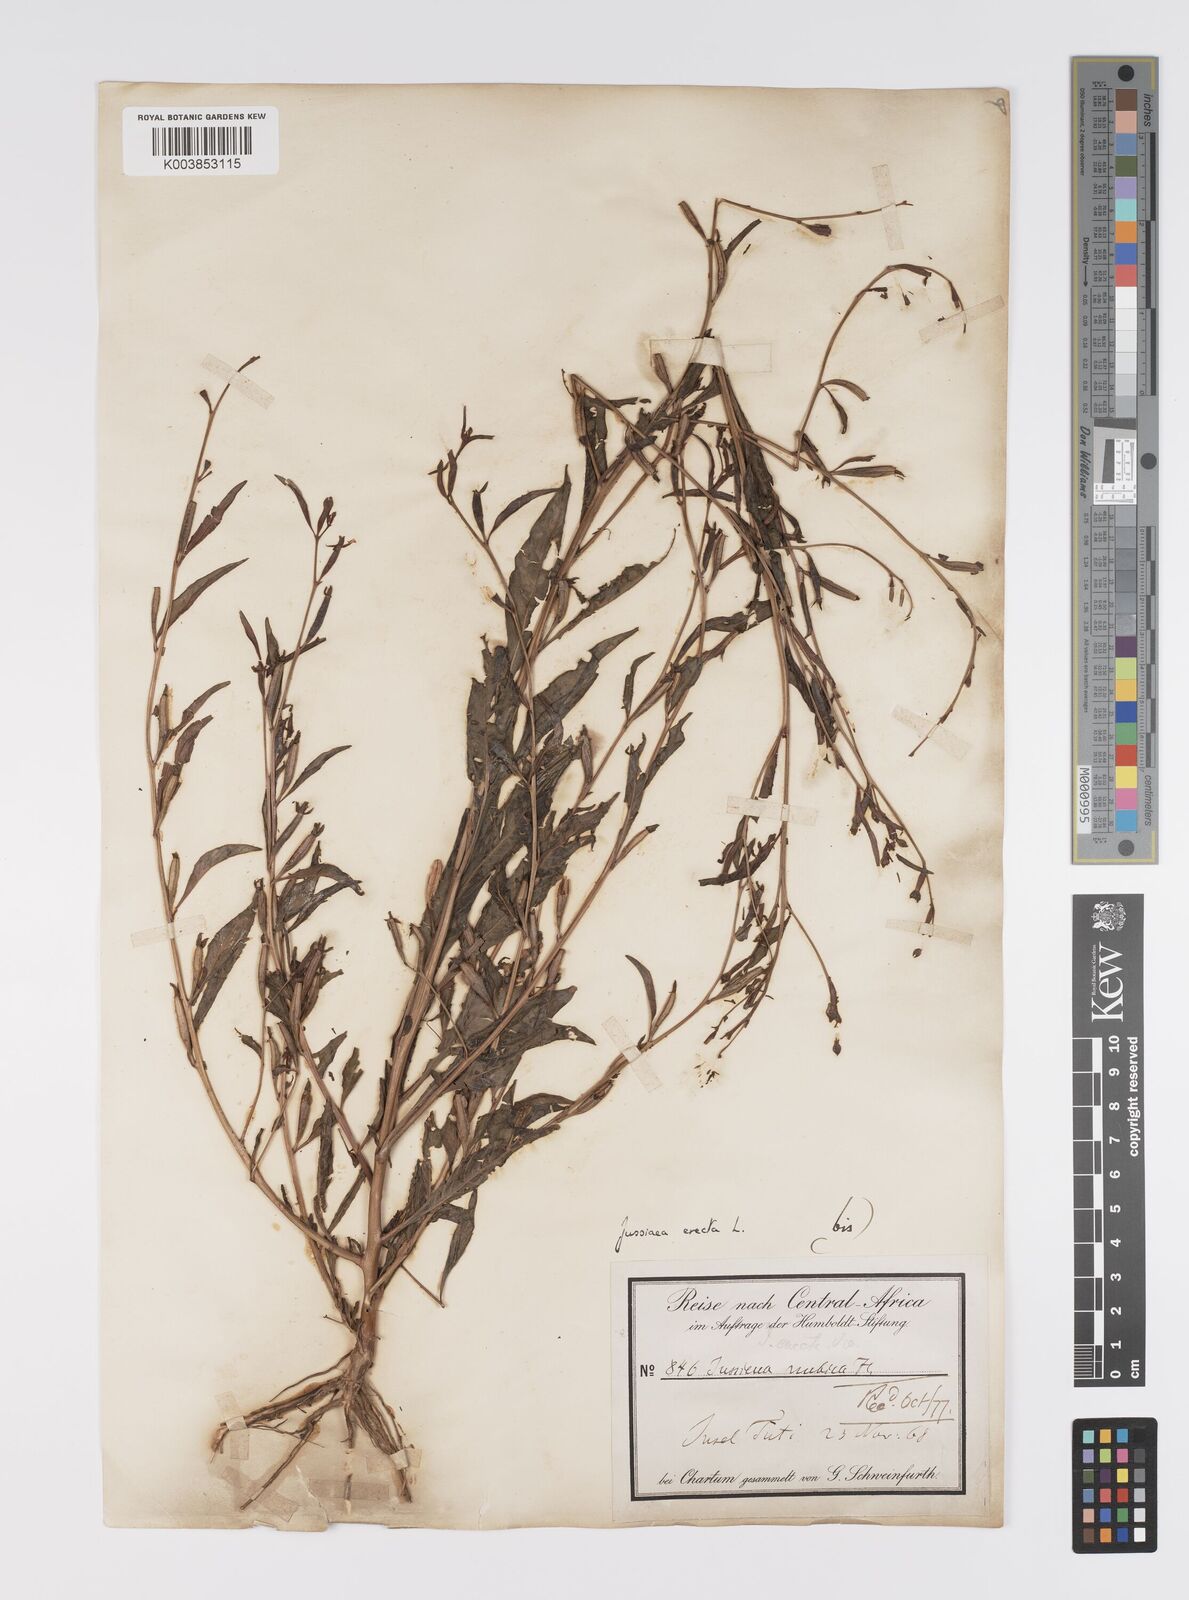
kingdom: Plantae
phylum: Tracheophyta
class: Magnoliopsida
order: Myrtales
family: Onagraceae
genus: Ludwigia
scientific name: Ludwigia erecta
